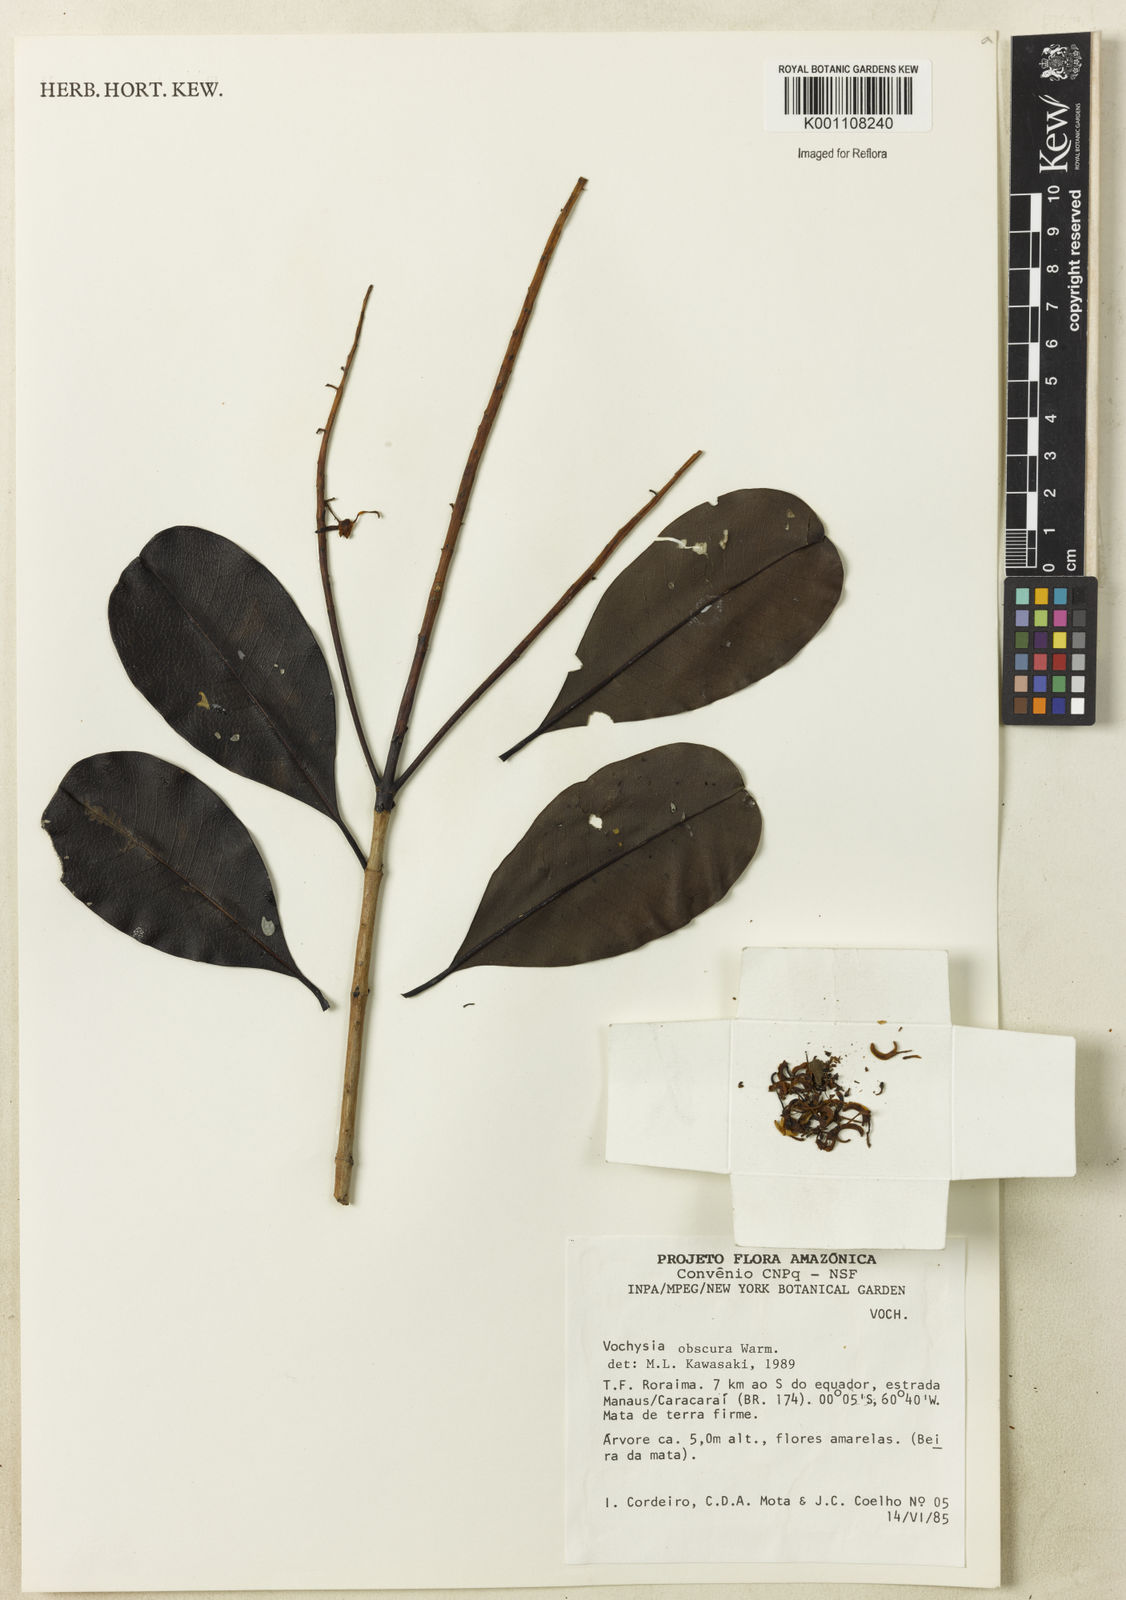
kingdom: Plantae
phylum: Tracheophyta
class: Magnoliopsida
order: Myrtales
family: Vochysiaceae
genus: Vochysia
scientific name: Vochysia obscura
